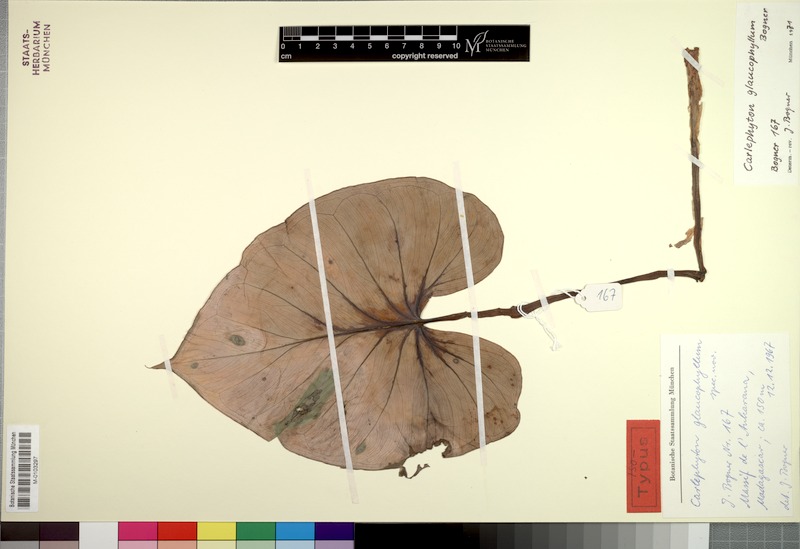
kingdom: Plantae
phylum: Tracheophyta
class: Liliopsida
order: Alismatales
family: Araceae
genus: Carlephyton
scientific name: Carlephyton glaucophyllum
